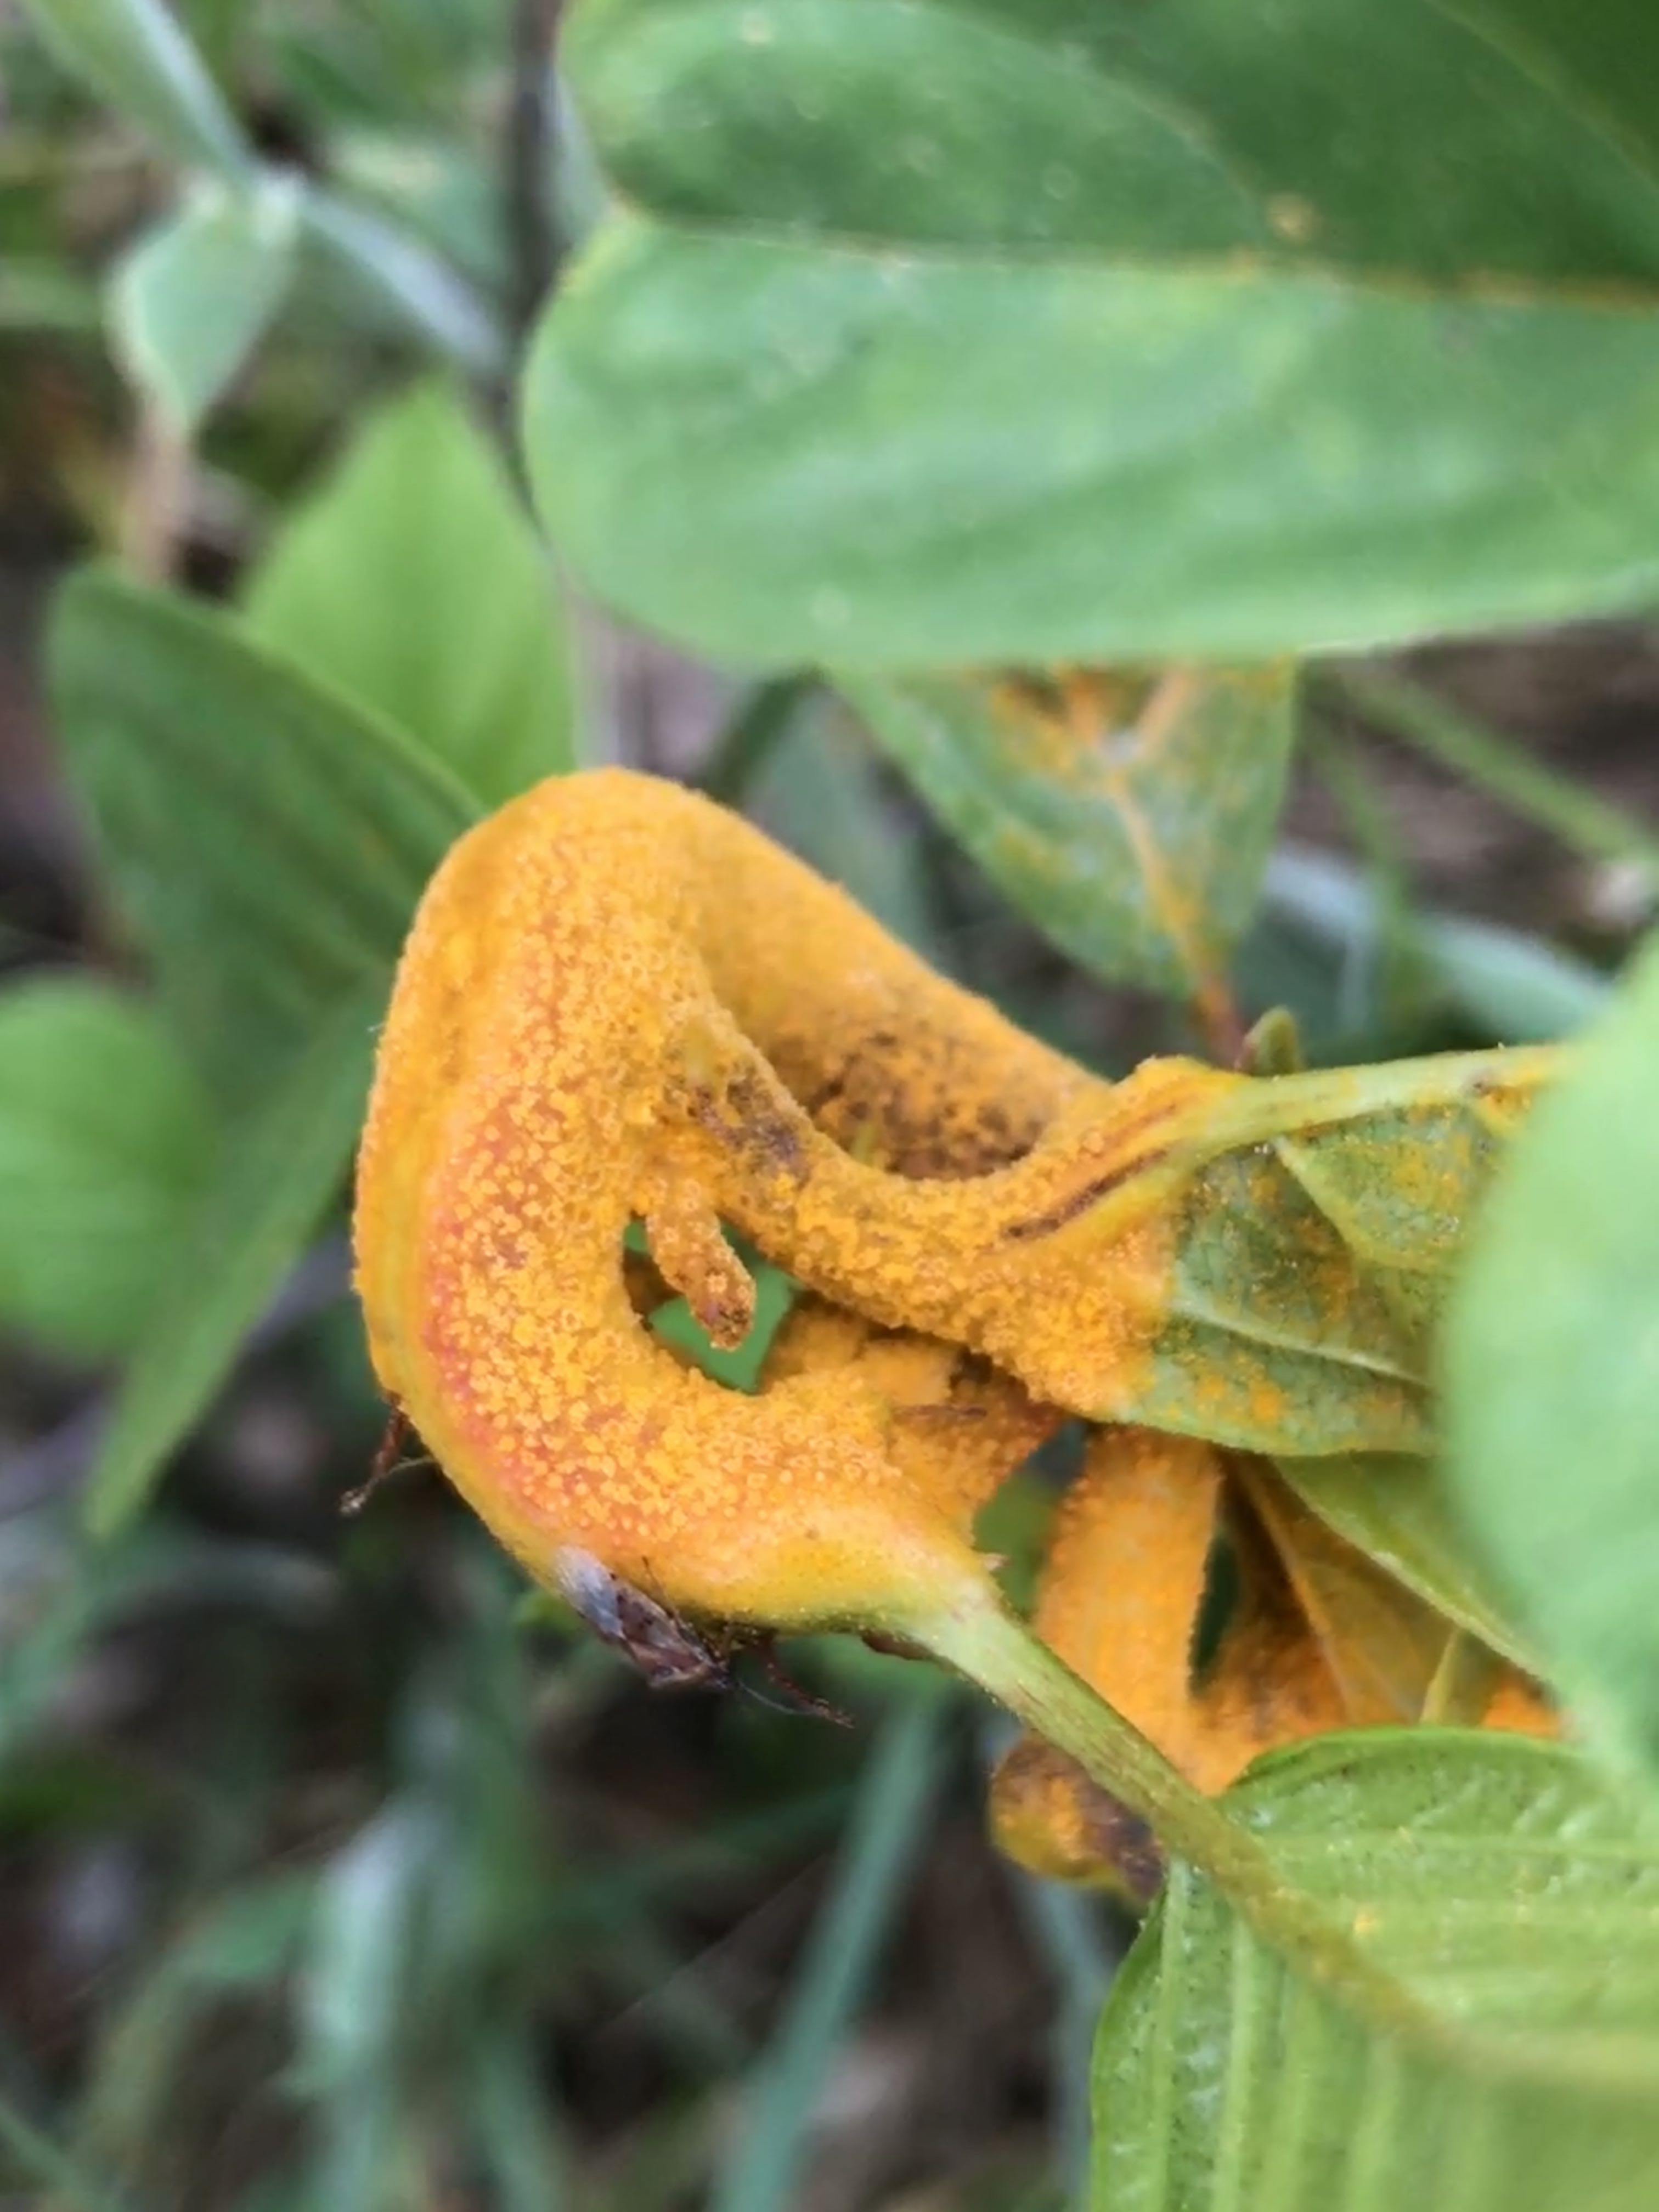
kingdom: Fungi
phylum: Basidiomycota
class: Pucciniomycetes
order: Pucciniales
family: Pucciniaceae
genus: Puccinia
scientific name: Puccinia coronata
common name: Crown rust
